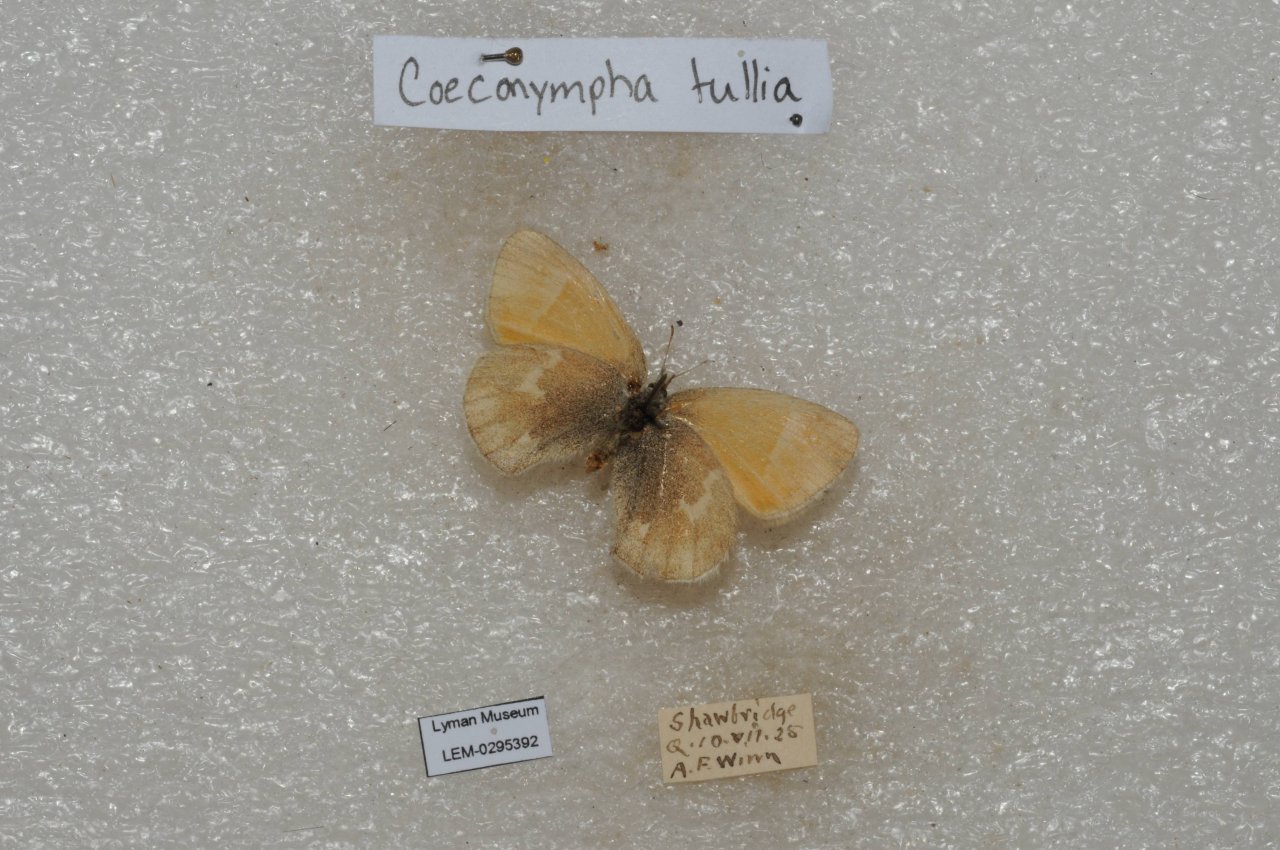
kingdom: Animalia
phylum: Arthropoda
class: Insecta
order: Lepidoptera
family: Nymphalidae
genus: Coenonympha
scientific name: Coenonympha tullia
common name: Large Heath
